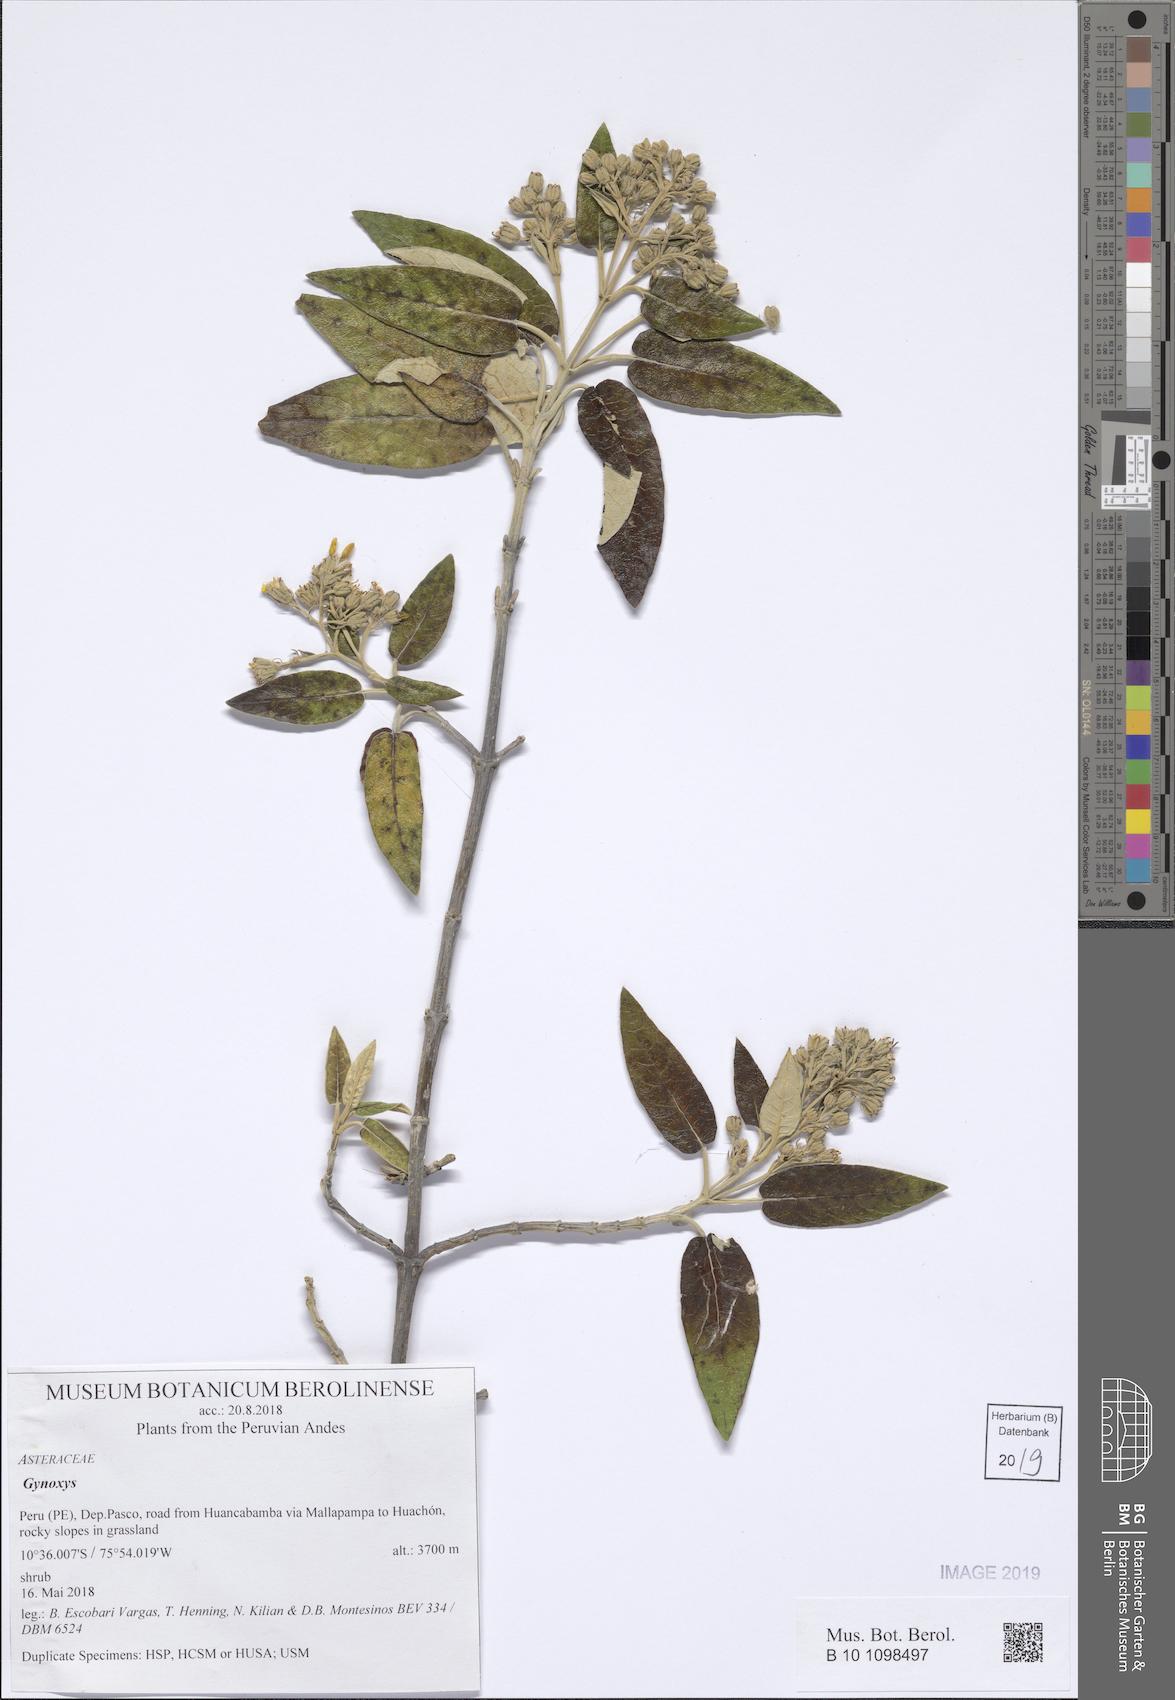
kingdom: Plantae
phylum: Tracheophyta
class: Magnoliopsida
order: Asterales
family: Asteraceae
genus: Gynoxys
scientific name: Gynoxys
